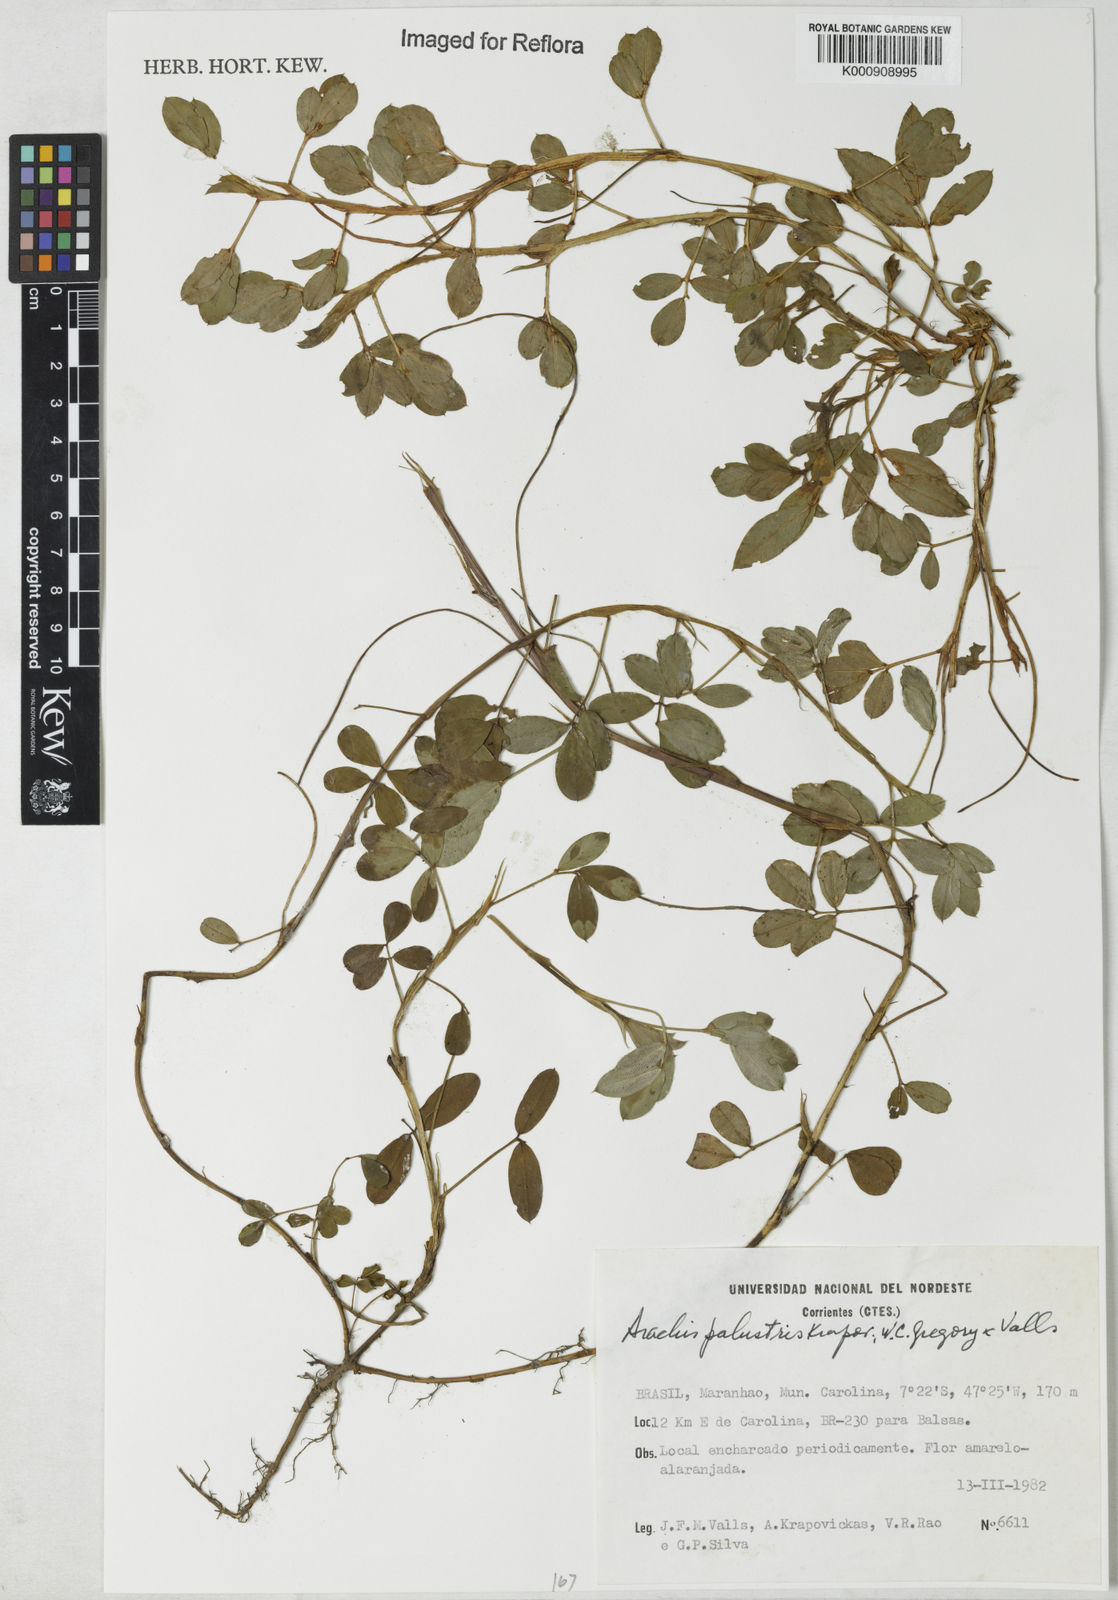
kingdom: Plantae
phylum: Tracheophyta
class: Magnoliopsida
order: Fabales
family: Fabaceae
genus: Arachis
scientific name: Arachis
